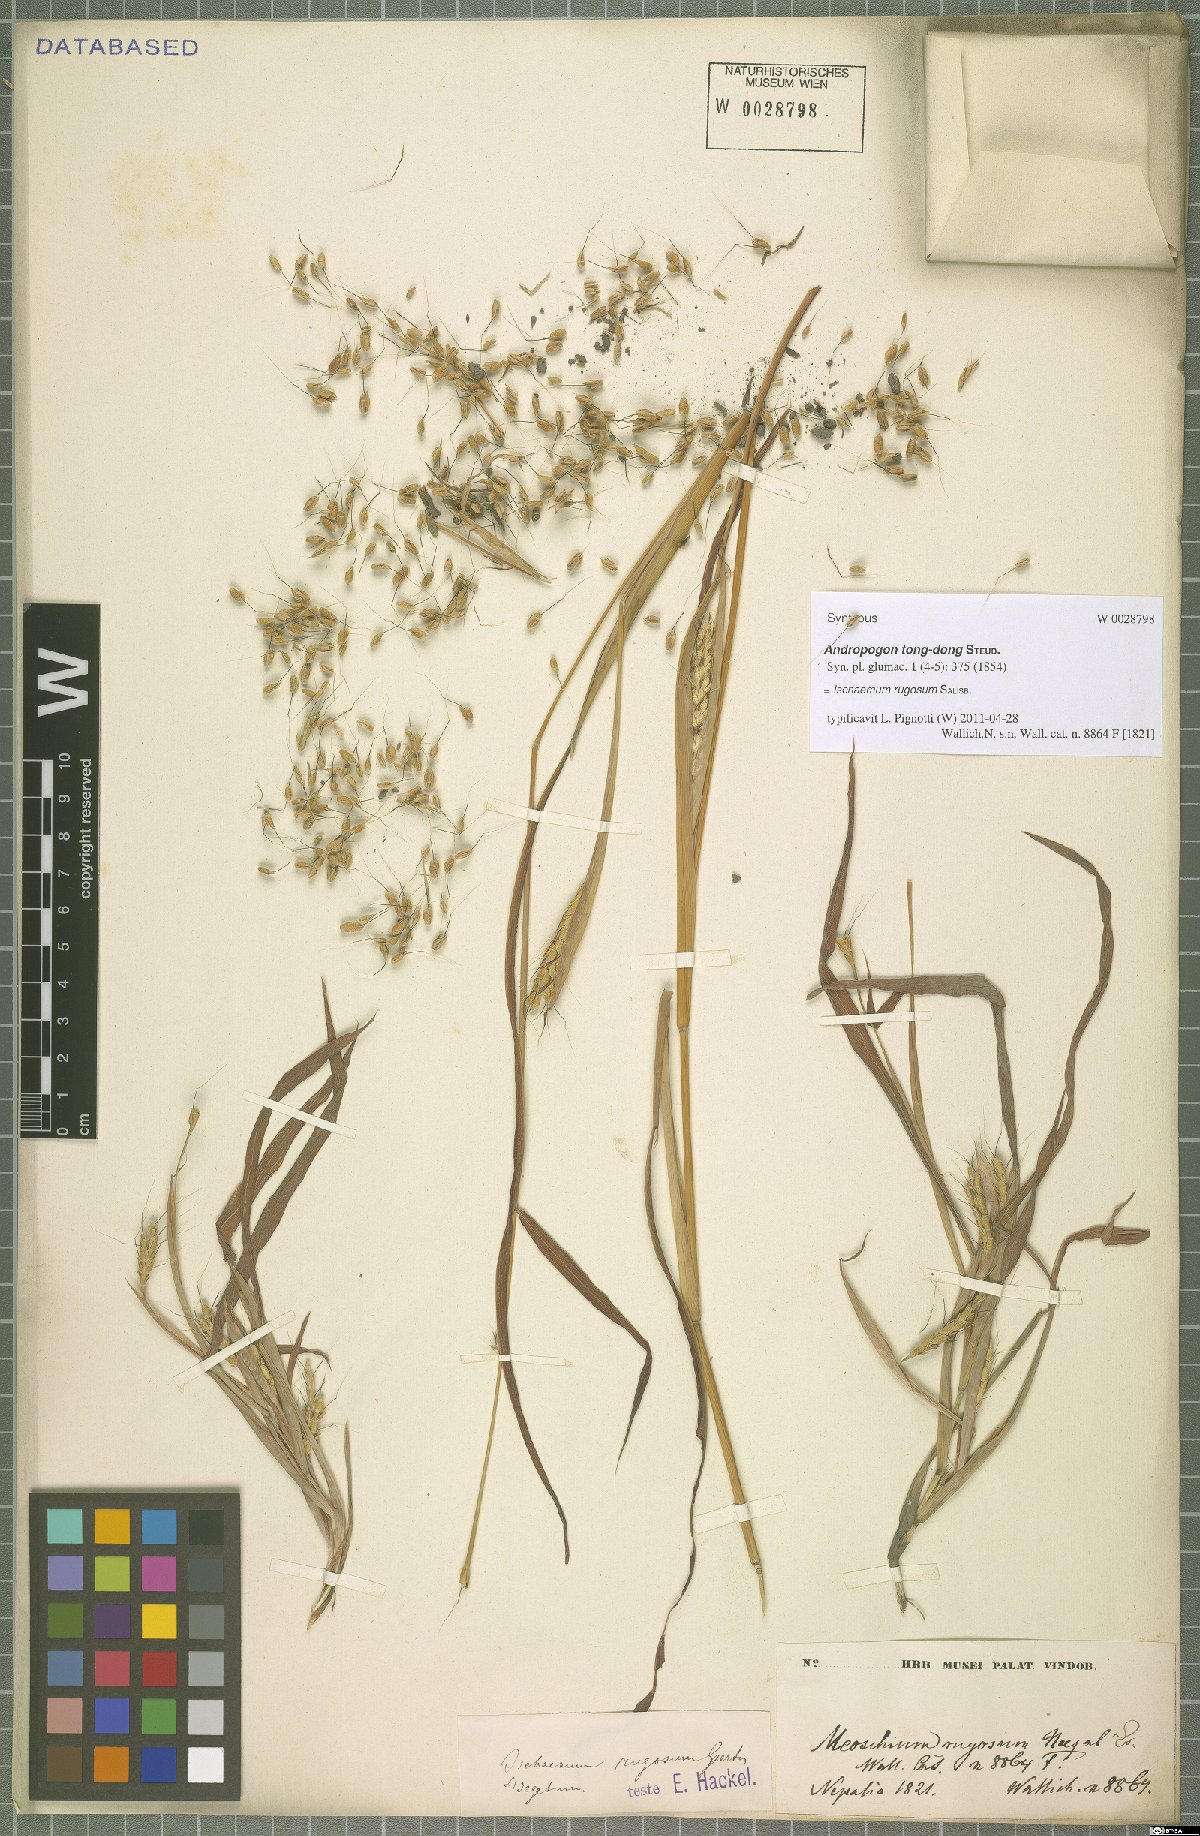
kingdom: Plantae
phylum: Tracheophyta
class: Liliopsida
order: Poales
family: Poaceae
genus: Ischaemum
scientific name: Ischaemum rugosum
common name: Saramatta grass
